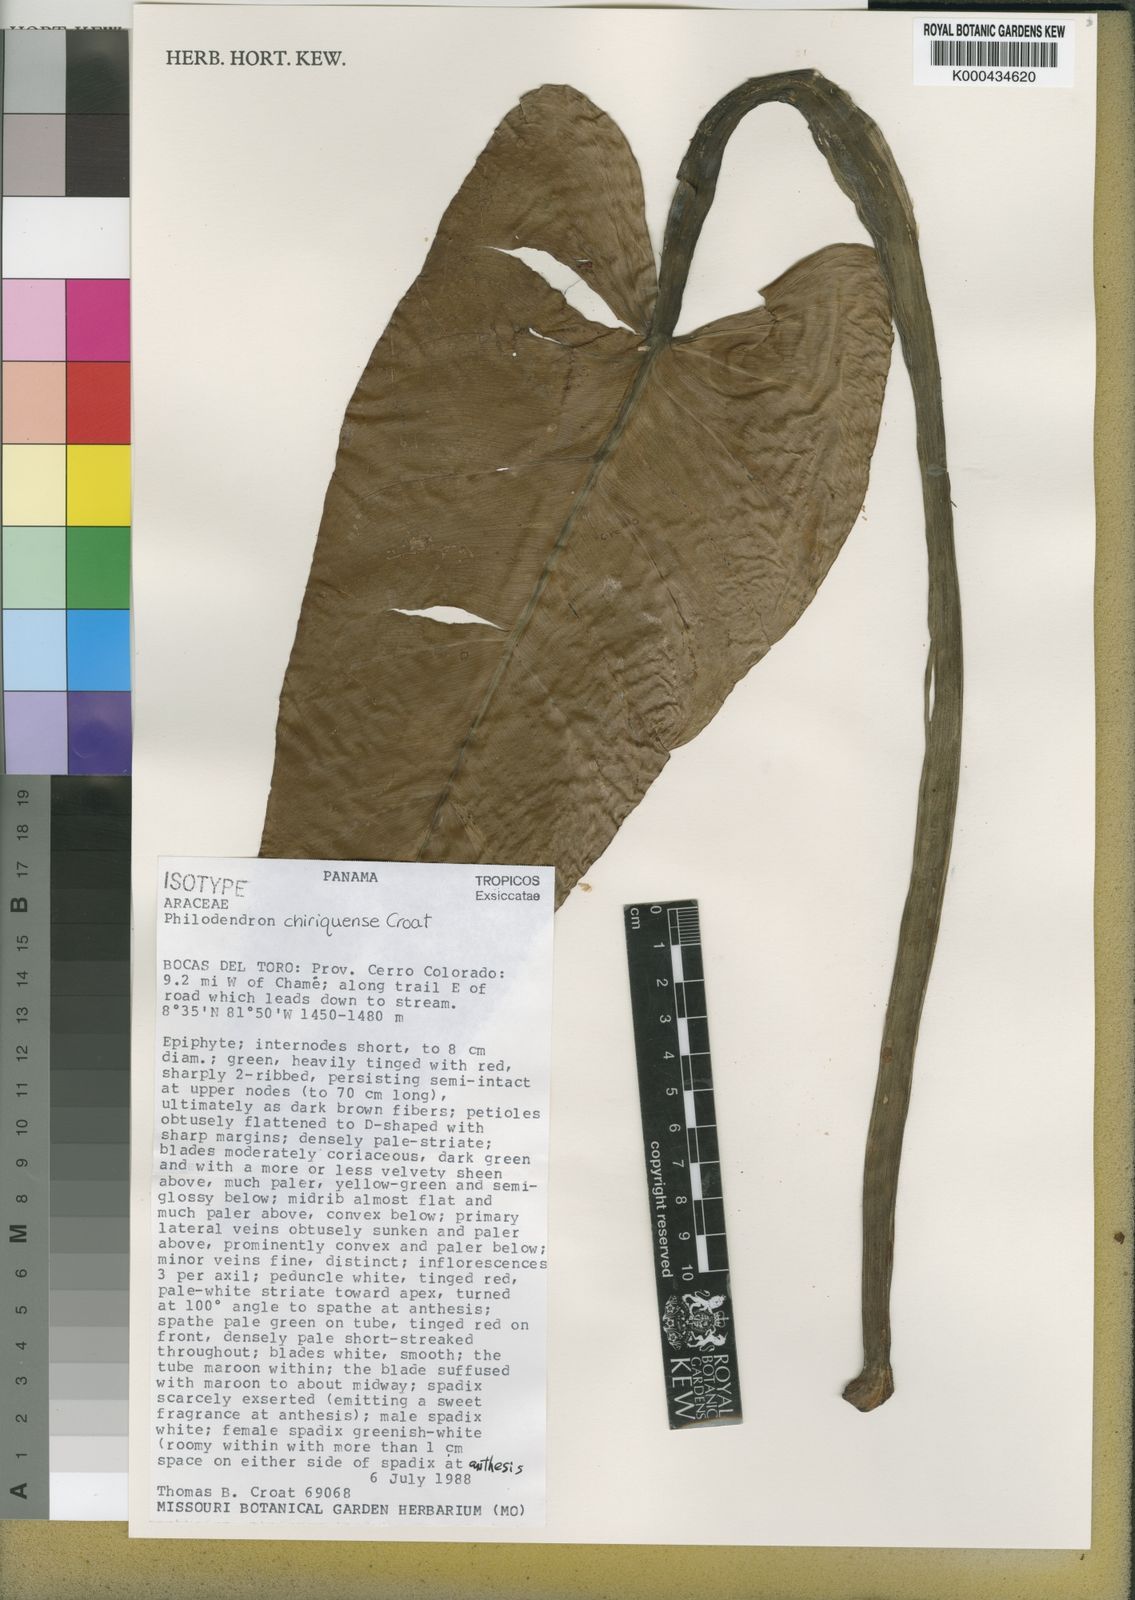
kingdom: Plantae
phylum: Tracheophyta
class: Liliopsida
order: Alismatales
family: Araceae
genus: Philodendron
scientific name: Philodendron chiriquense
